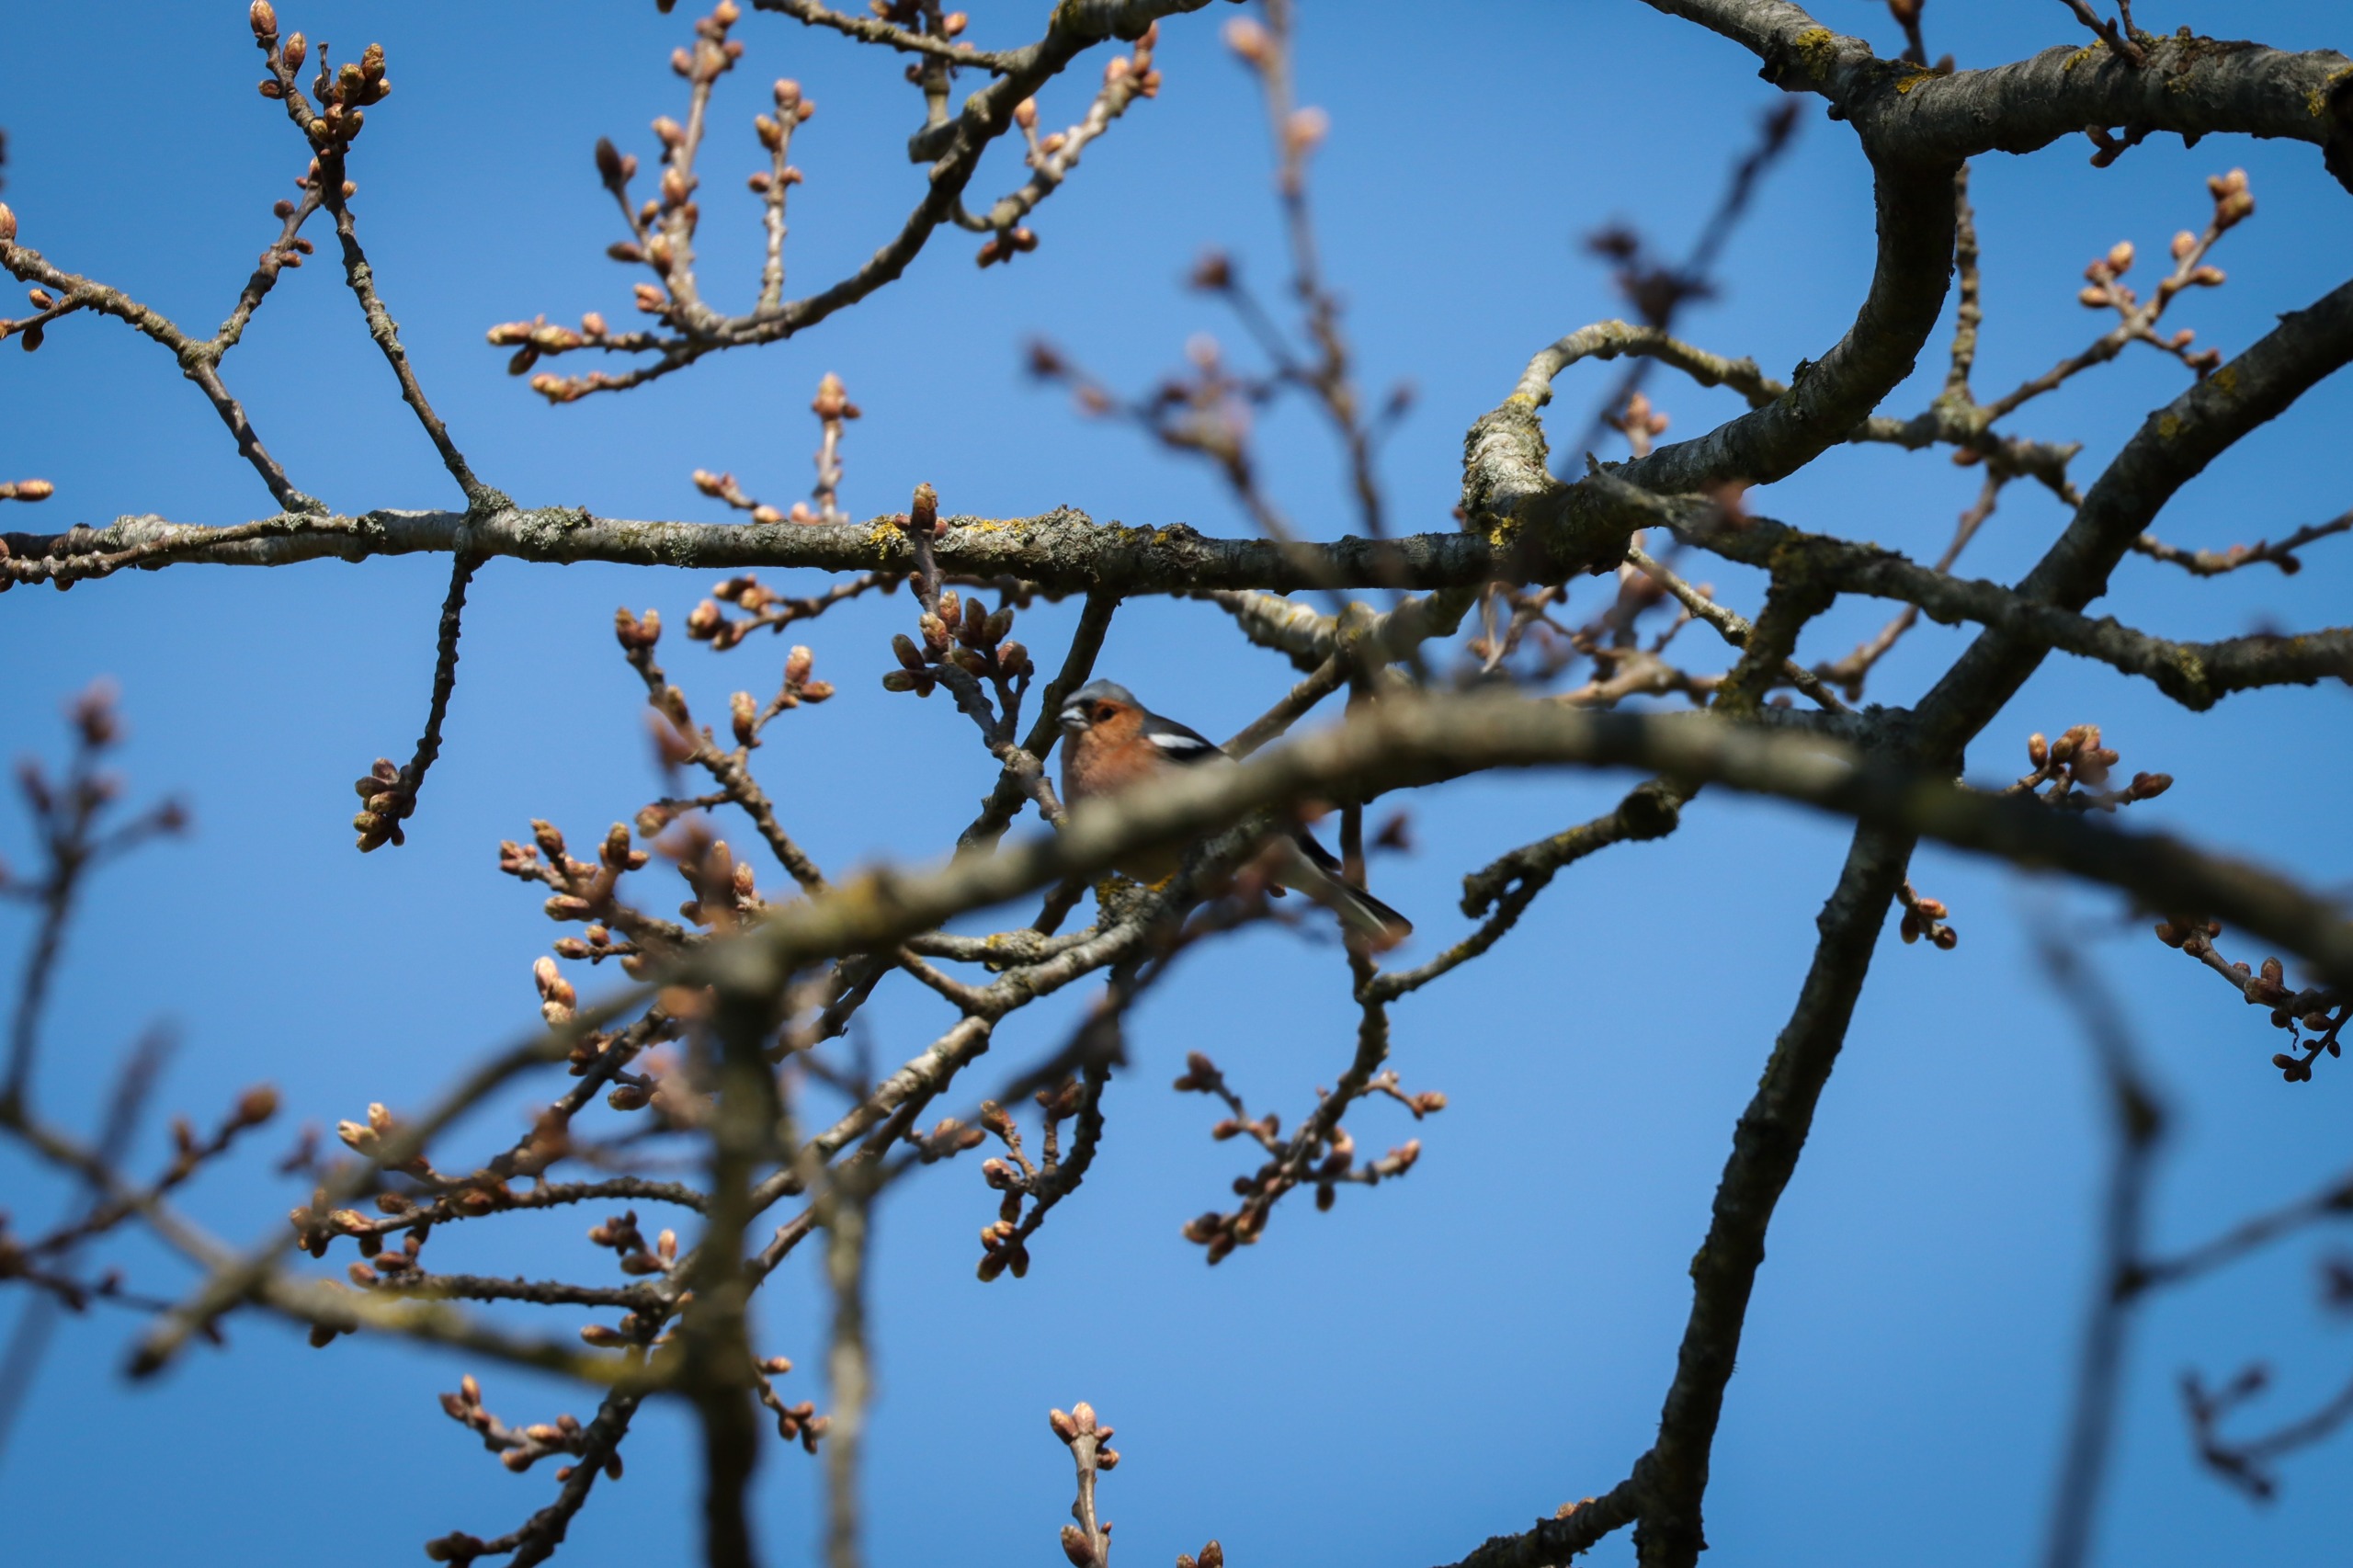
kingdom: Animalia
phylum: Chordata
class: Aves
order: Passeriformes
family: Fringillidae
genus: Fringilla
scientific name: Fringilla coelebs
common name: Bogfinke
